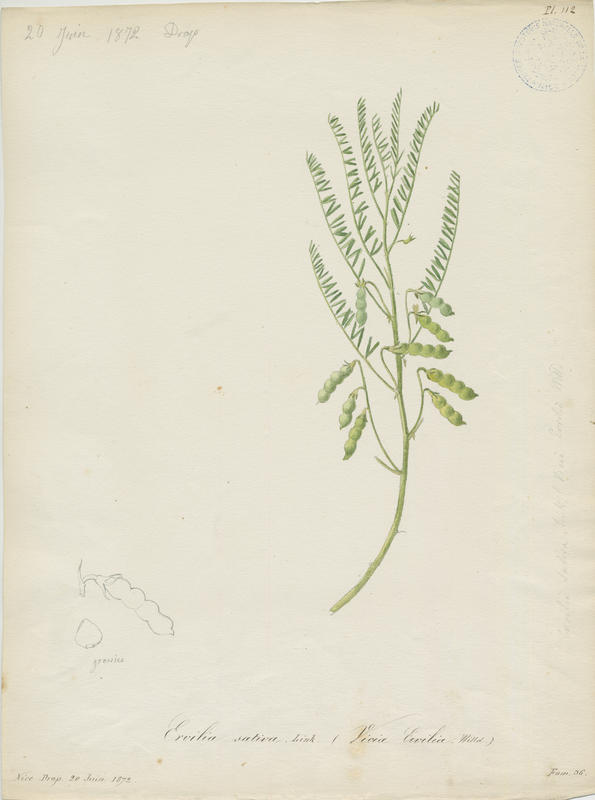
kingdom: Plantae
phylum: Tracheophyta
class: Magnoliopsida
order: Fabales
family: Fabaceae
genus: Vicia
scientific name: Vicia ervilia
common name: Bitter vetch
